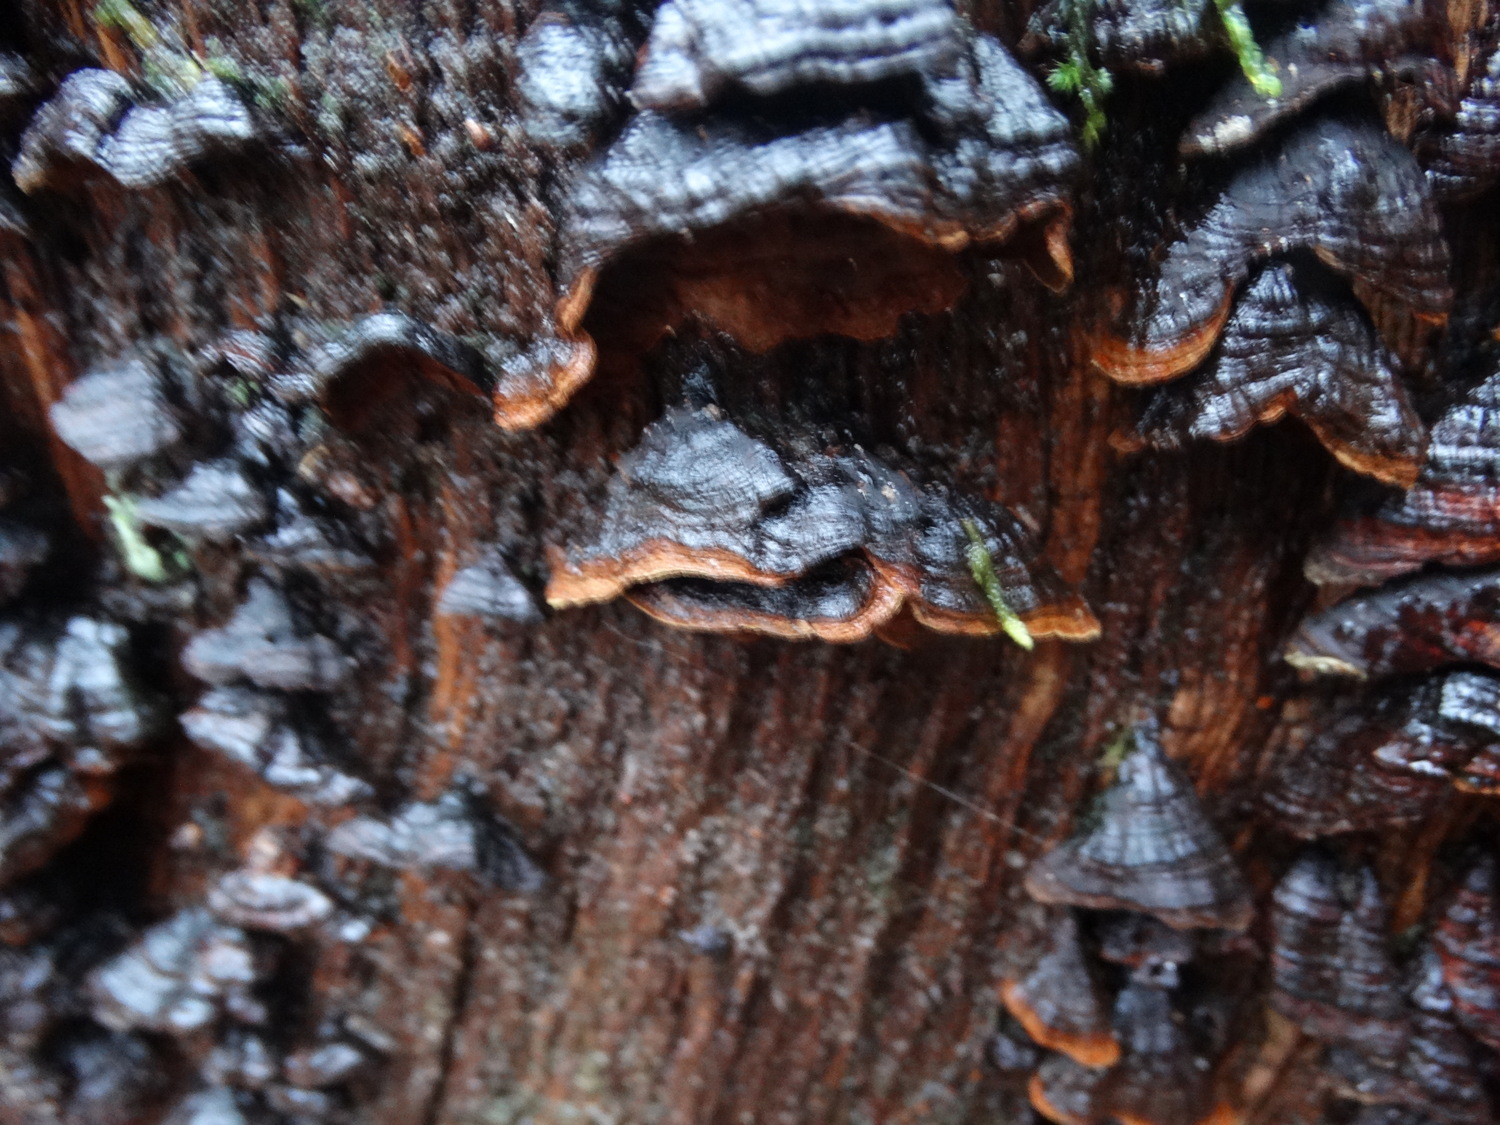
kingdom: Fungi
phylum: Basidiomycota
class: Agaricomycetes
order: Hymenochaetales
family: Hymenochaetaceae
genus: Hymenochaete
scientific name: Hymenochaete rubiginosa
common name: stiv ruslædersvamp
